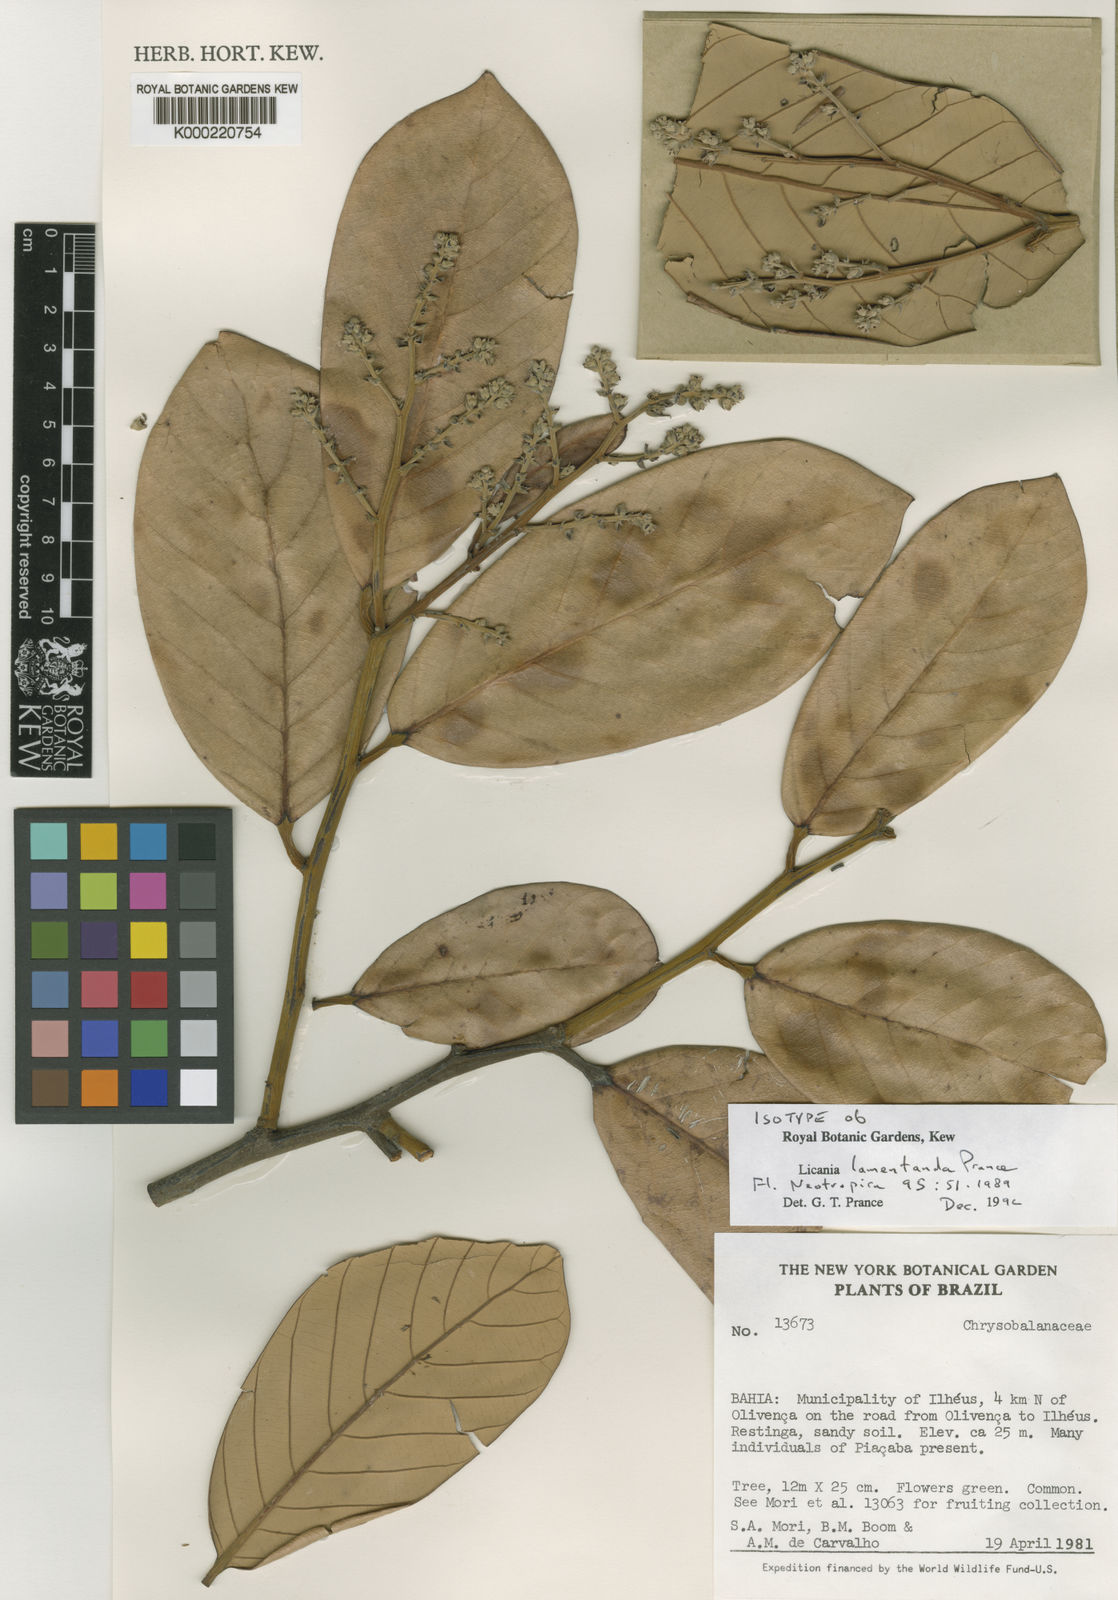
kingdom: Plantae
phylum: Tracheophyta
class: Magnoliopsida
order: Malpighiales
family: Chrysobalanaceae
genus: Licania
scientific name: Licania lamentanda
